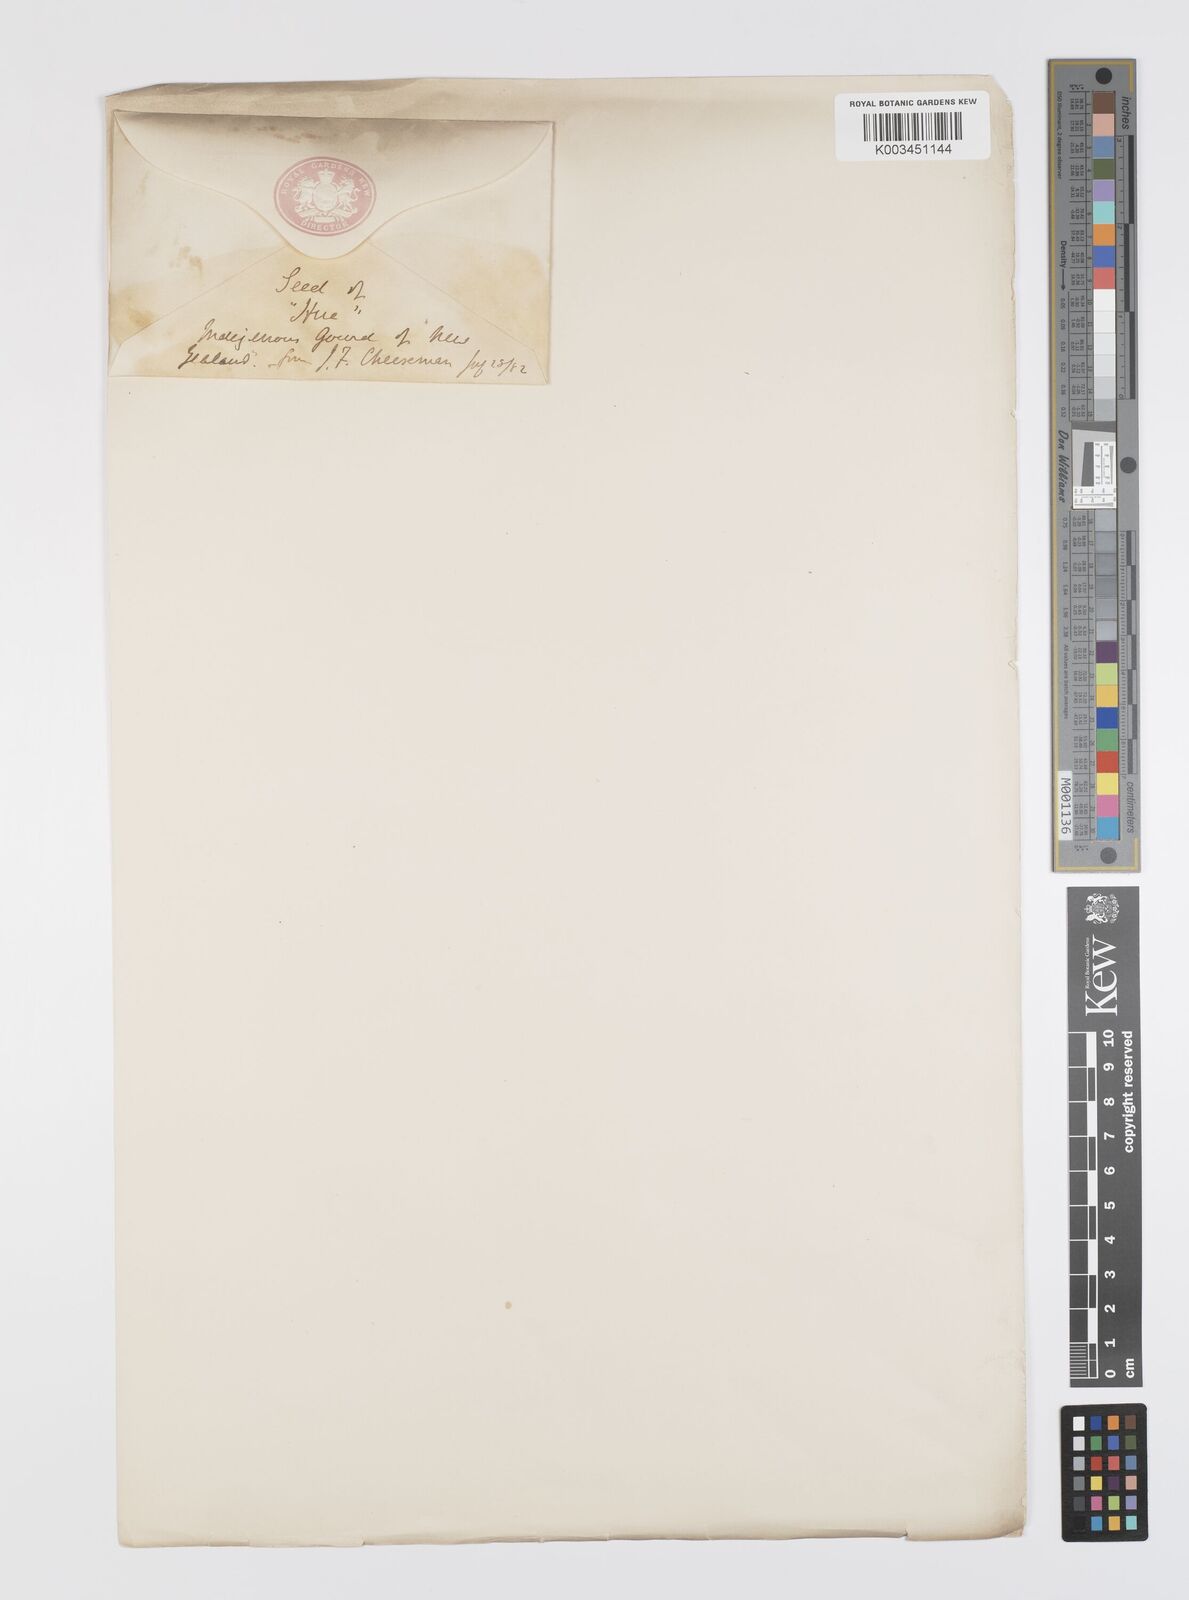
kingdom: Plantae
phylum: Tracheophyta
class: Magnoliopsida
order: Cucurbitales
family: Cucurbitaceae
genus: Lagenaria
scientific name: Lagenaria siceraria
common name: Bottle gourd
